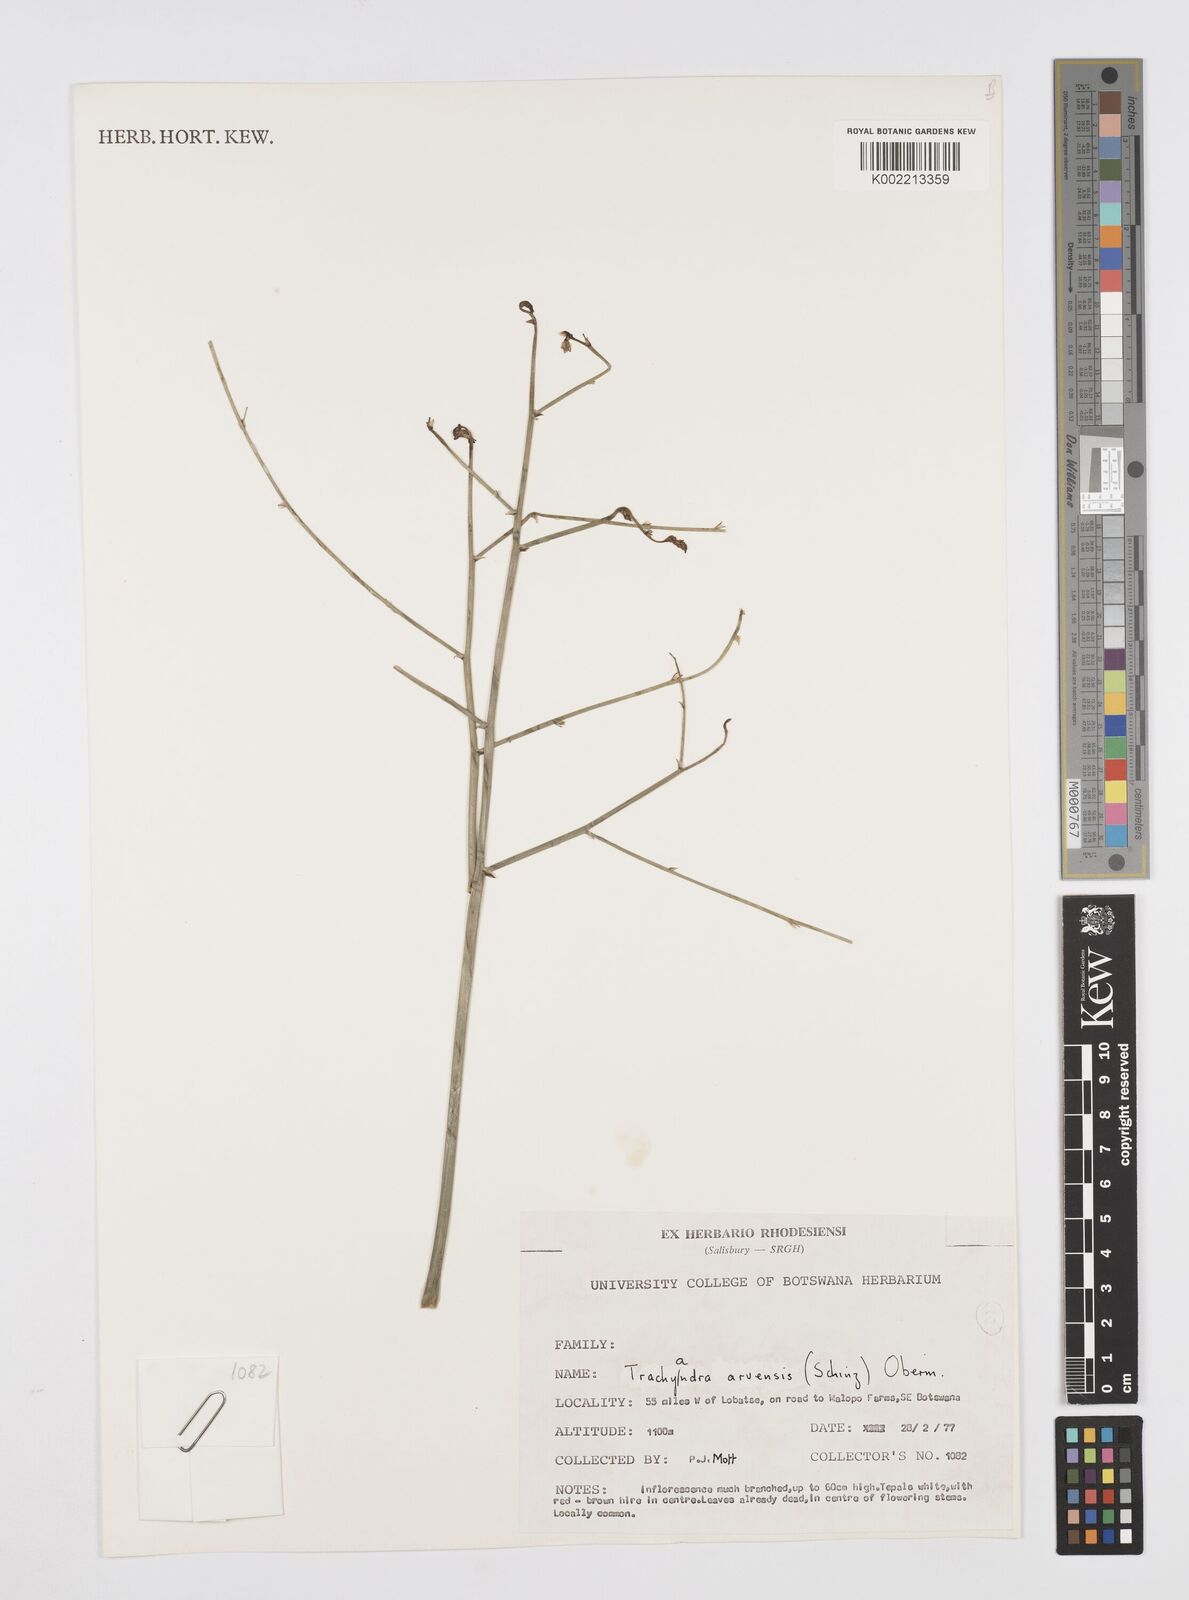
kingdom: Plantae
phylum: Tracheophyta
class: Liliopsida
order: Asparagales
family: Asphodelaceae
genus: Trachyandra
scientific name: Trachyandra arvensis
